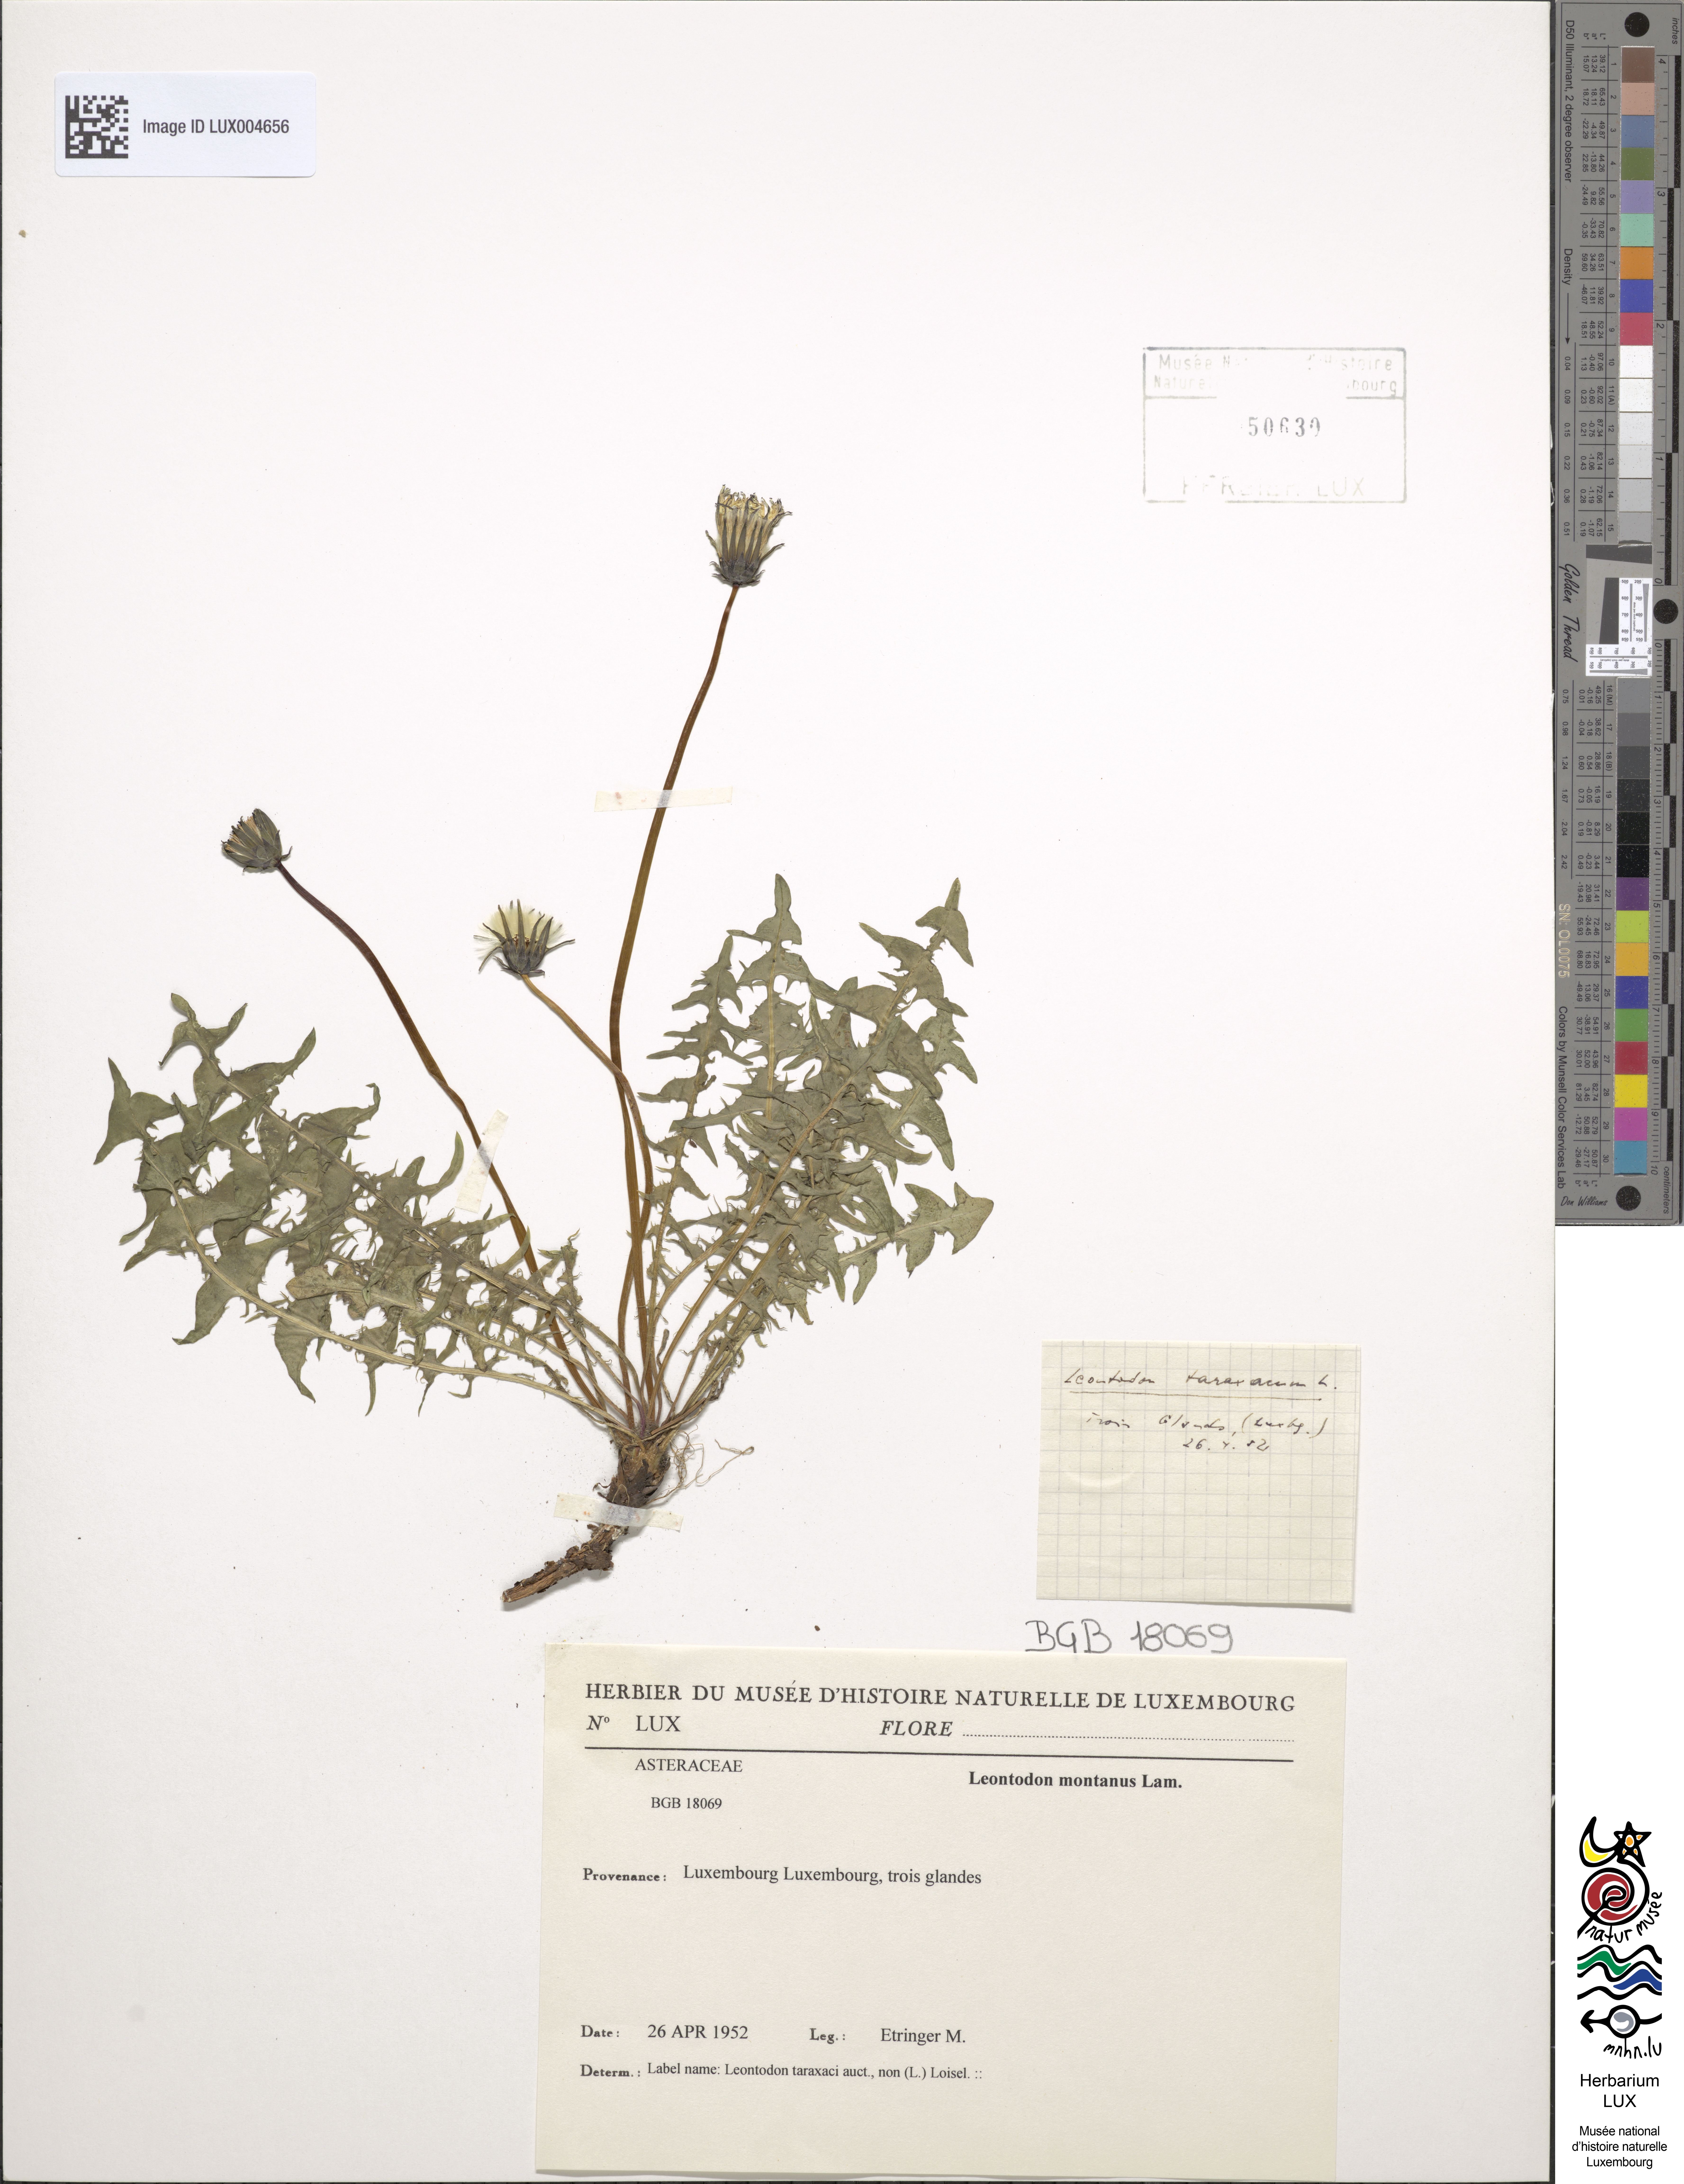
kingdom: Plantae
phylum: Tracheophyta
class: Magnoliopsida
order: Asterales
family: Asteraceae
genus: Scorzoneroides
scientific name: Scorzoneroides montana
